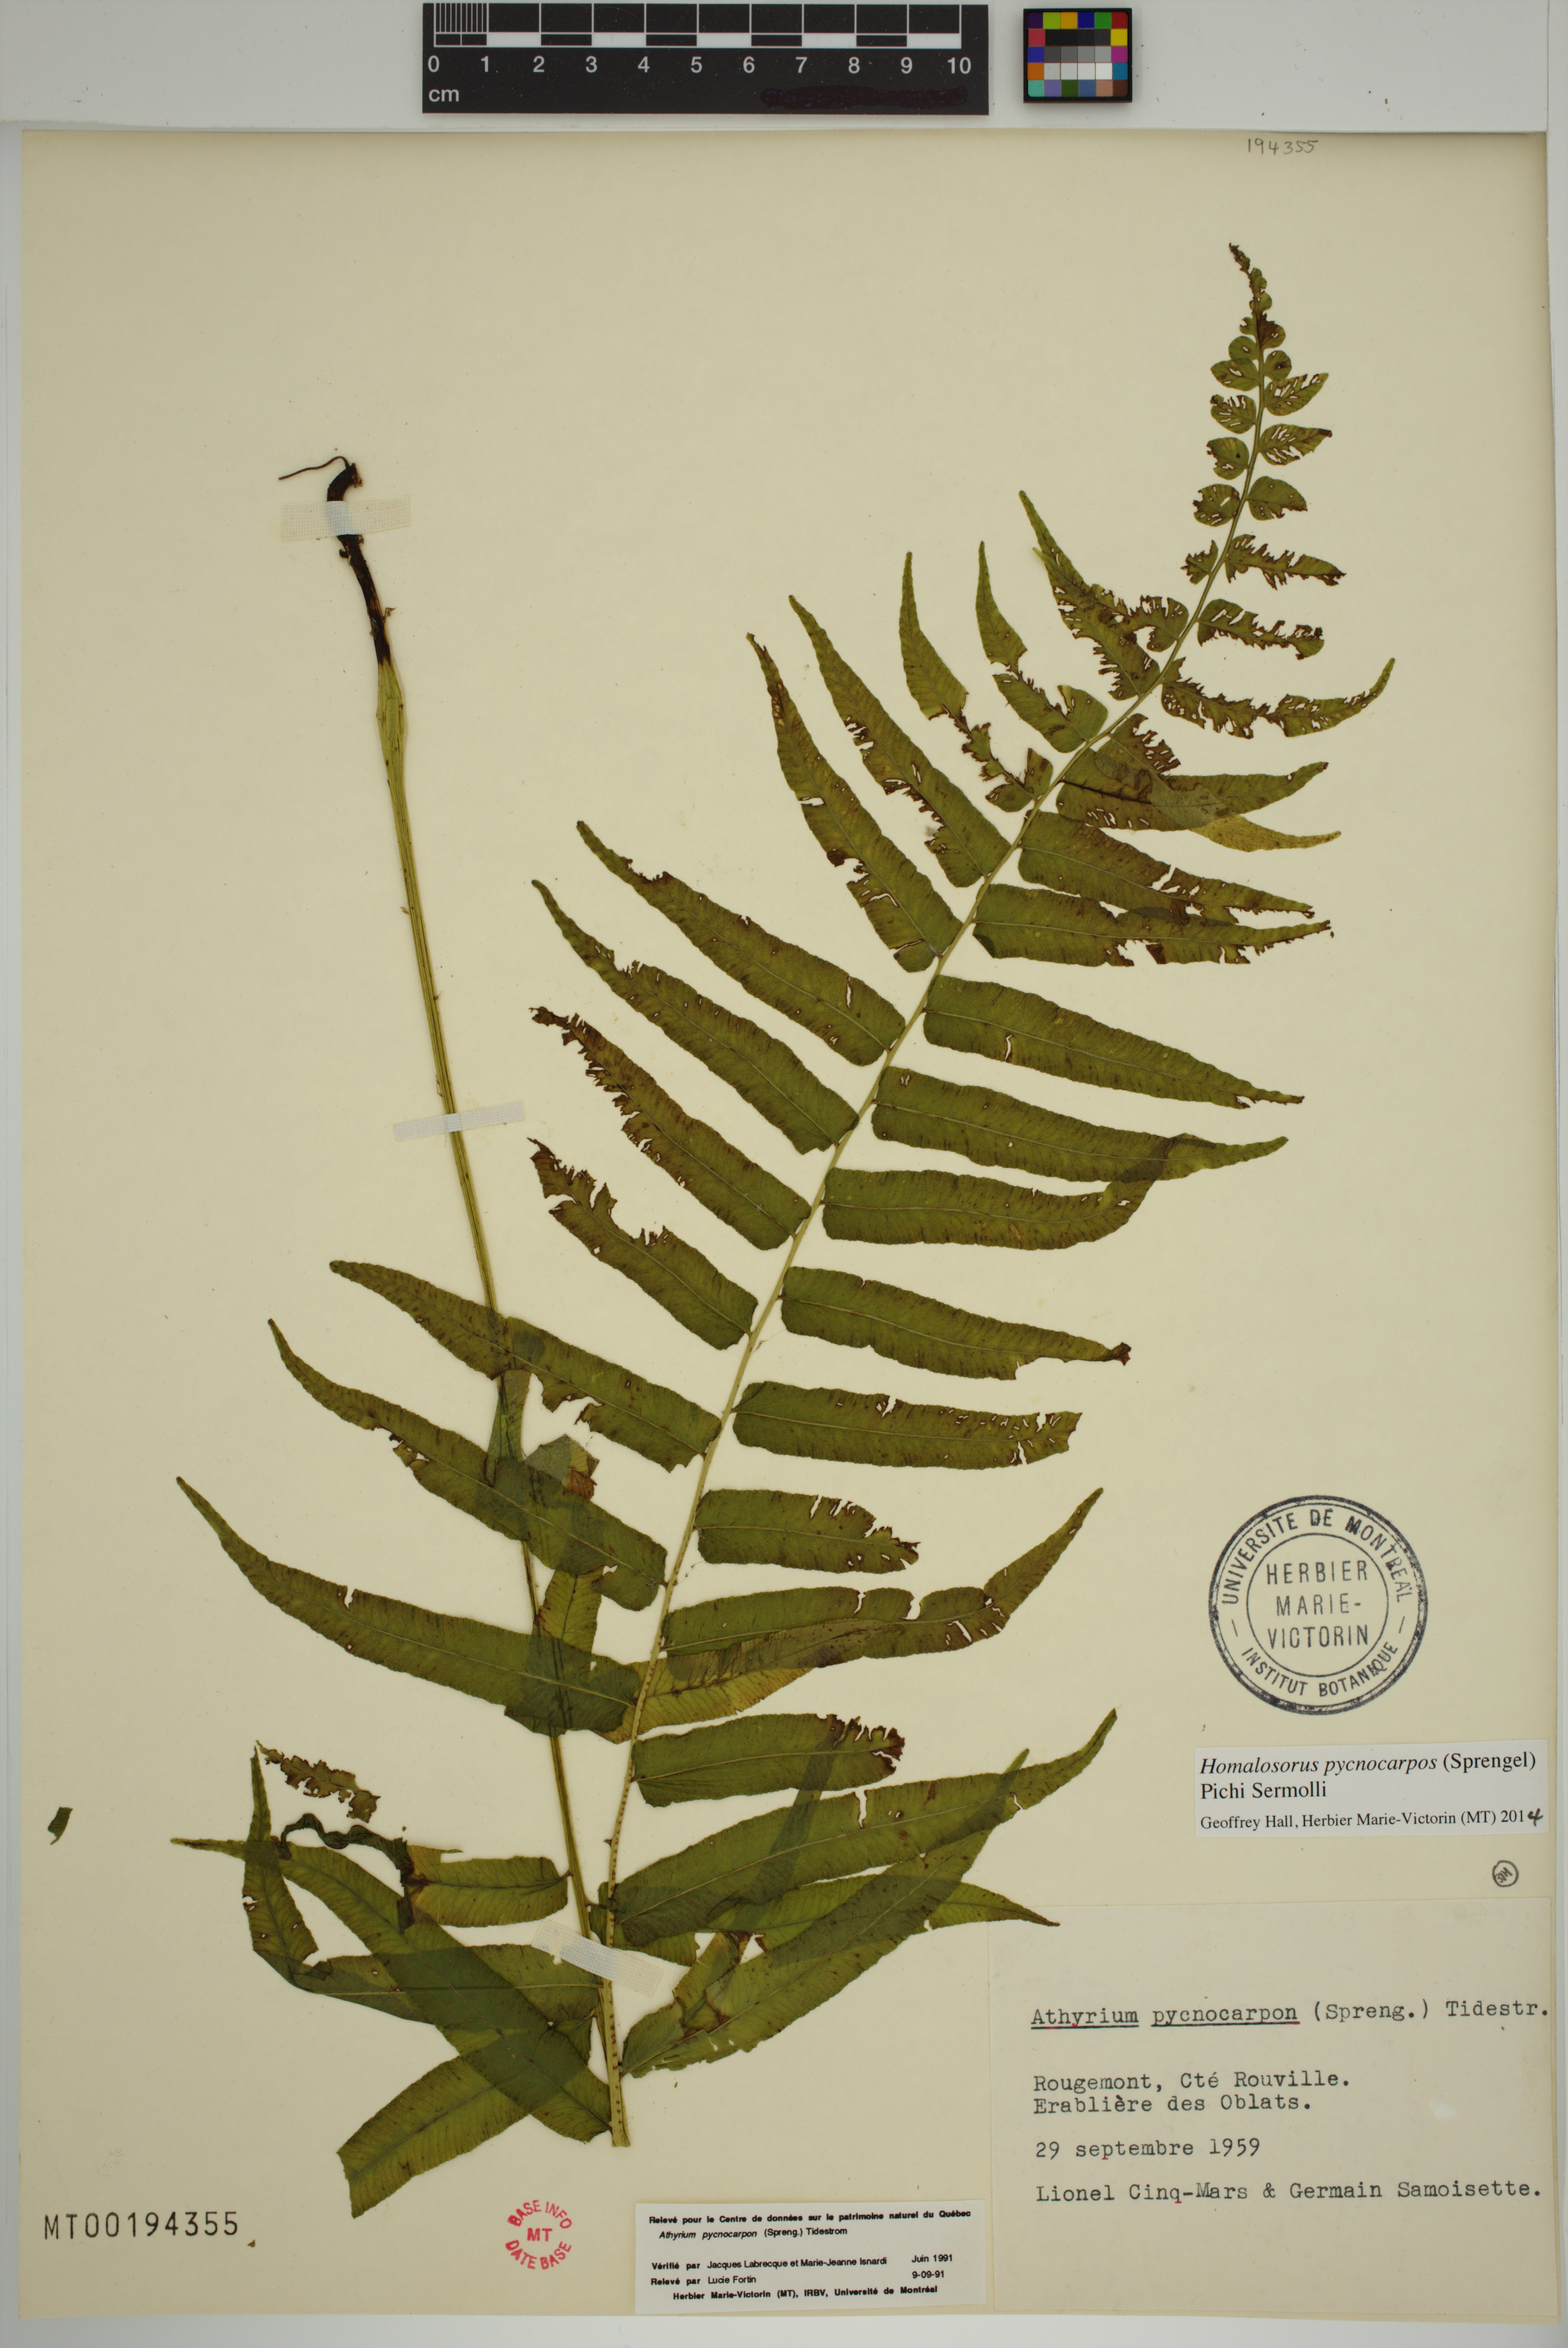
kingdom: Plantae
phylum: Tracheophyta
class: Polypodiopsida
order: Polypodiales
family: Diplaziopsidaceae
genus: Homalosorus
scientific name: Homalosorus pycnocarpos
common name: Glade fern
